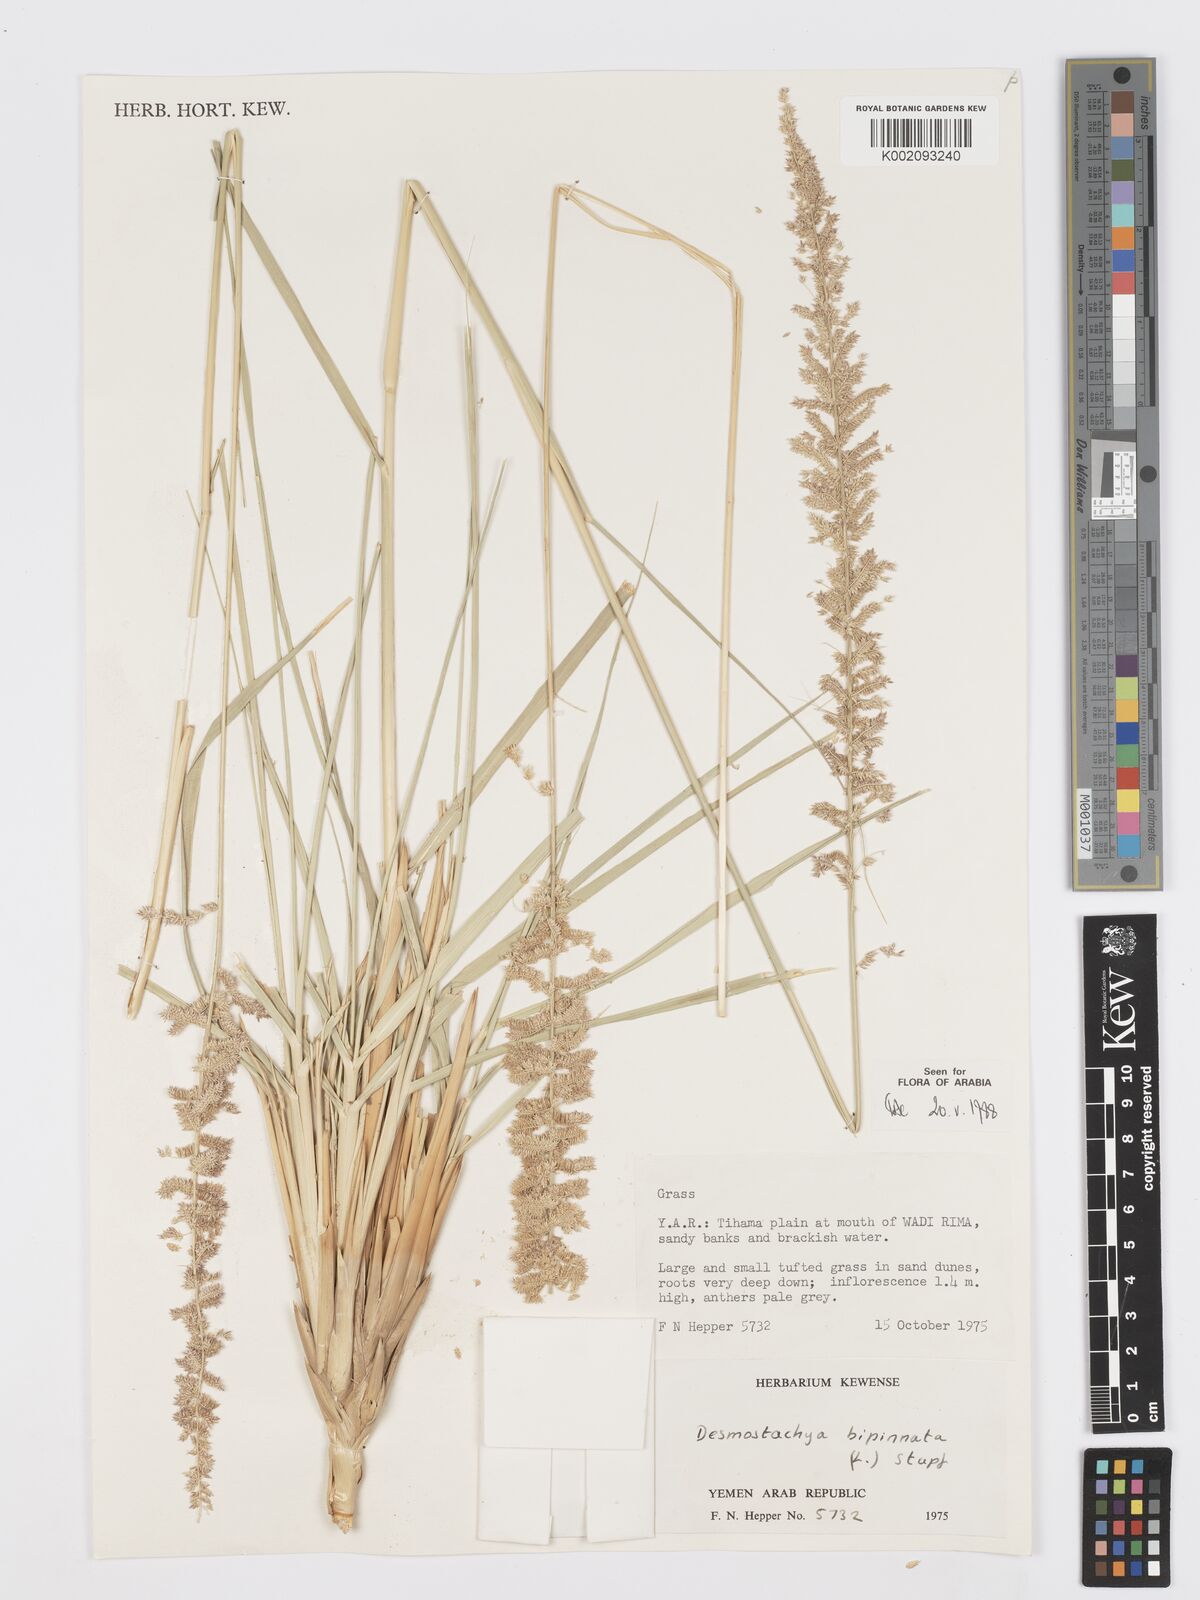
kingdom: Plantae
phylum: Tracheophyta
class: Liliopsida
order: Poales
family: Poaceae
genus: Desmostachya
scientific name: Desmostachya bipinnata
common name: Crowfoot grass
